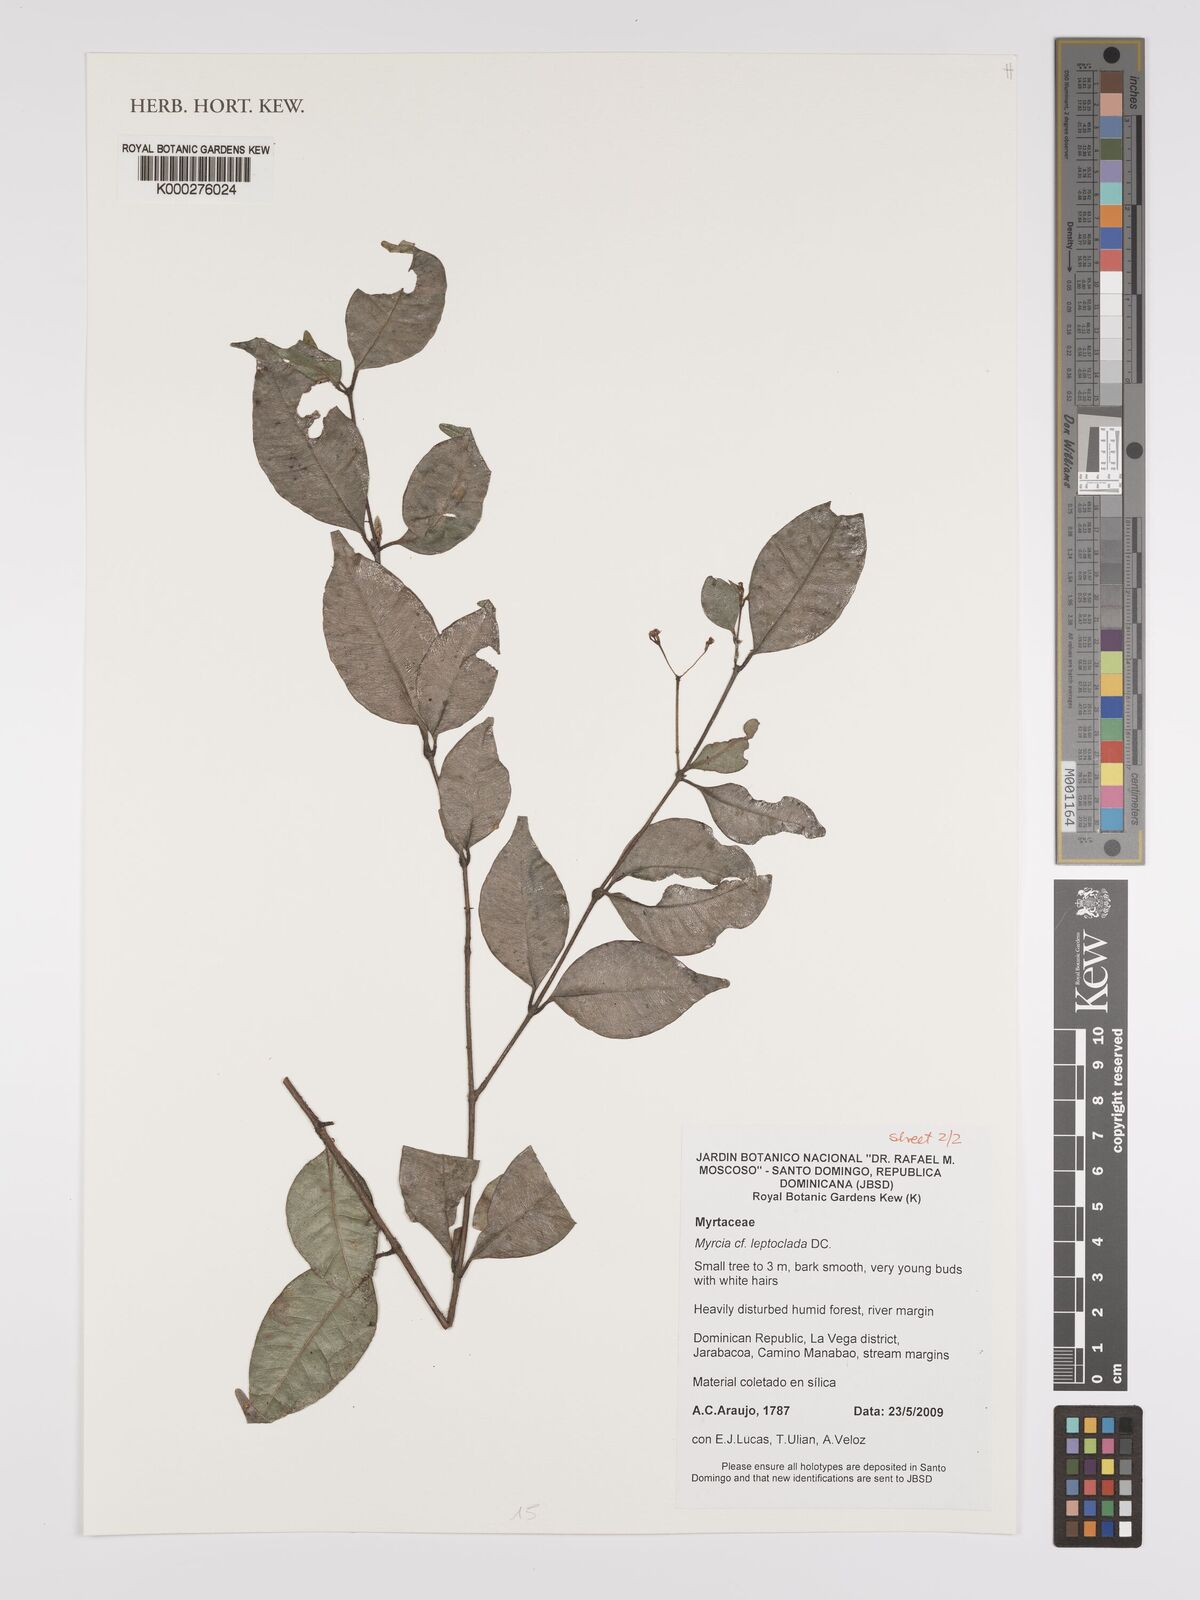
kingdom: Plantae
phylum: Tracheophyta
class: Magnoliopsida
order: Myrtales
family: Myrtaceae
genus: Myrcia
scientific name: Myrcia amazonica
